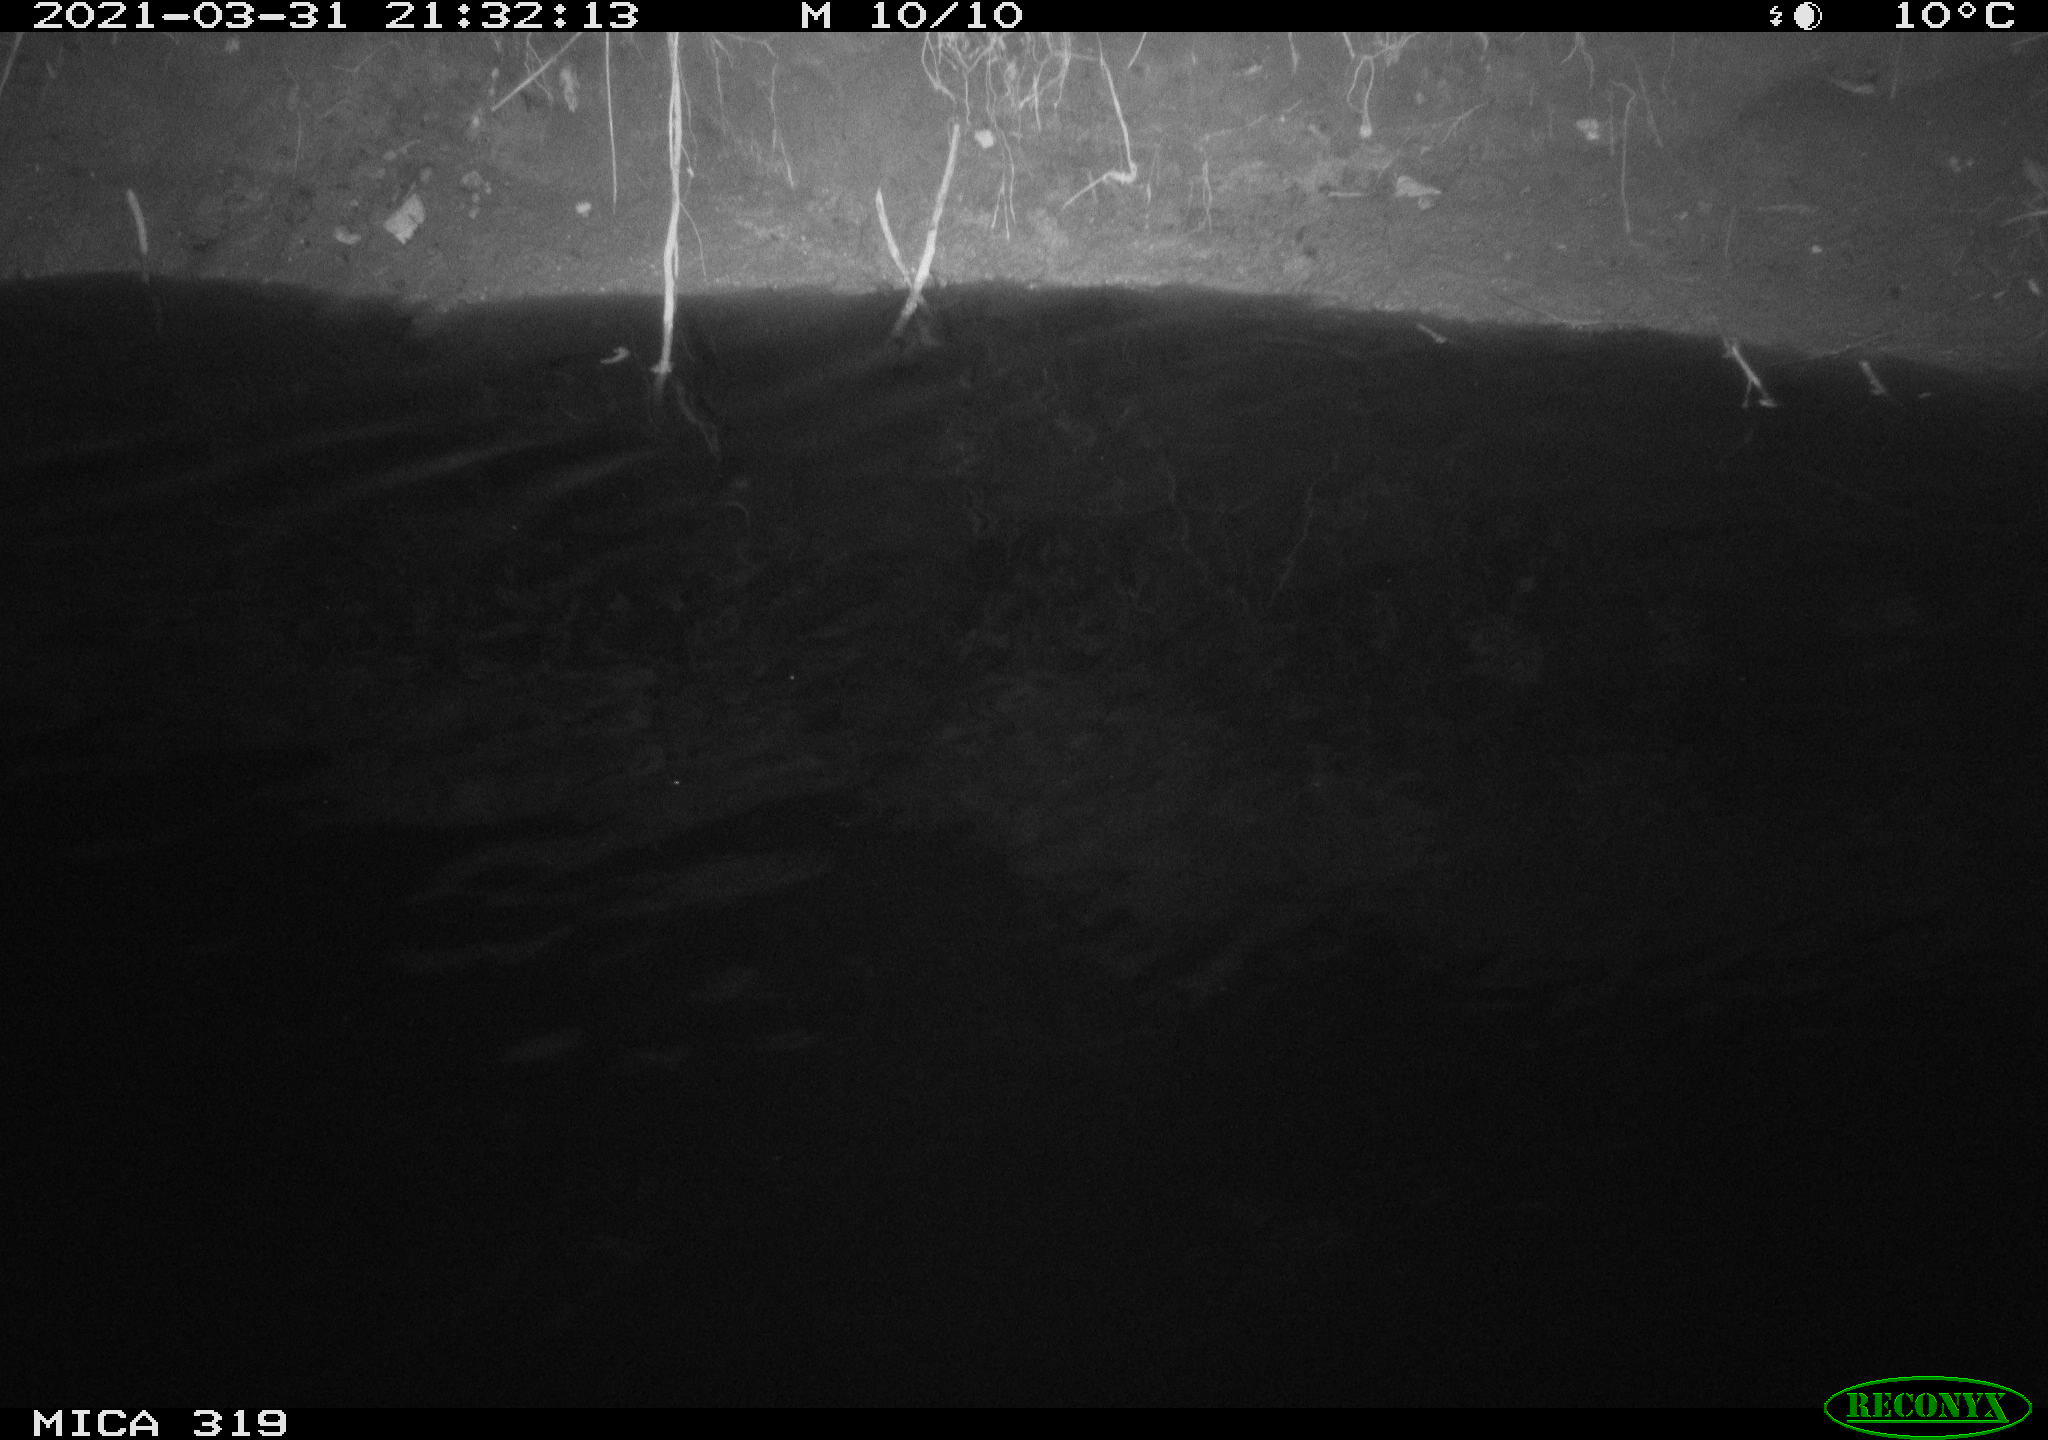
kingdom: Animalia
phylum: Chordata
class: Aves
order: Anseriformes
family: Anatidae
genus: Anas
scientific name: Anas platyrhynchos
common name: Mallard
